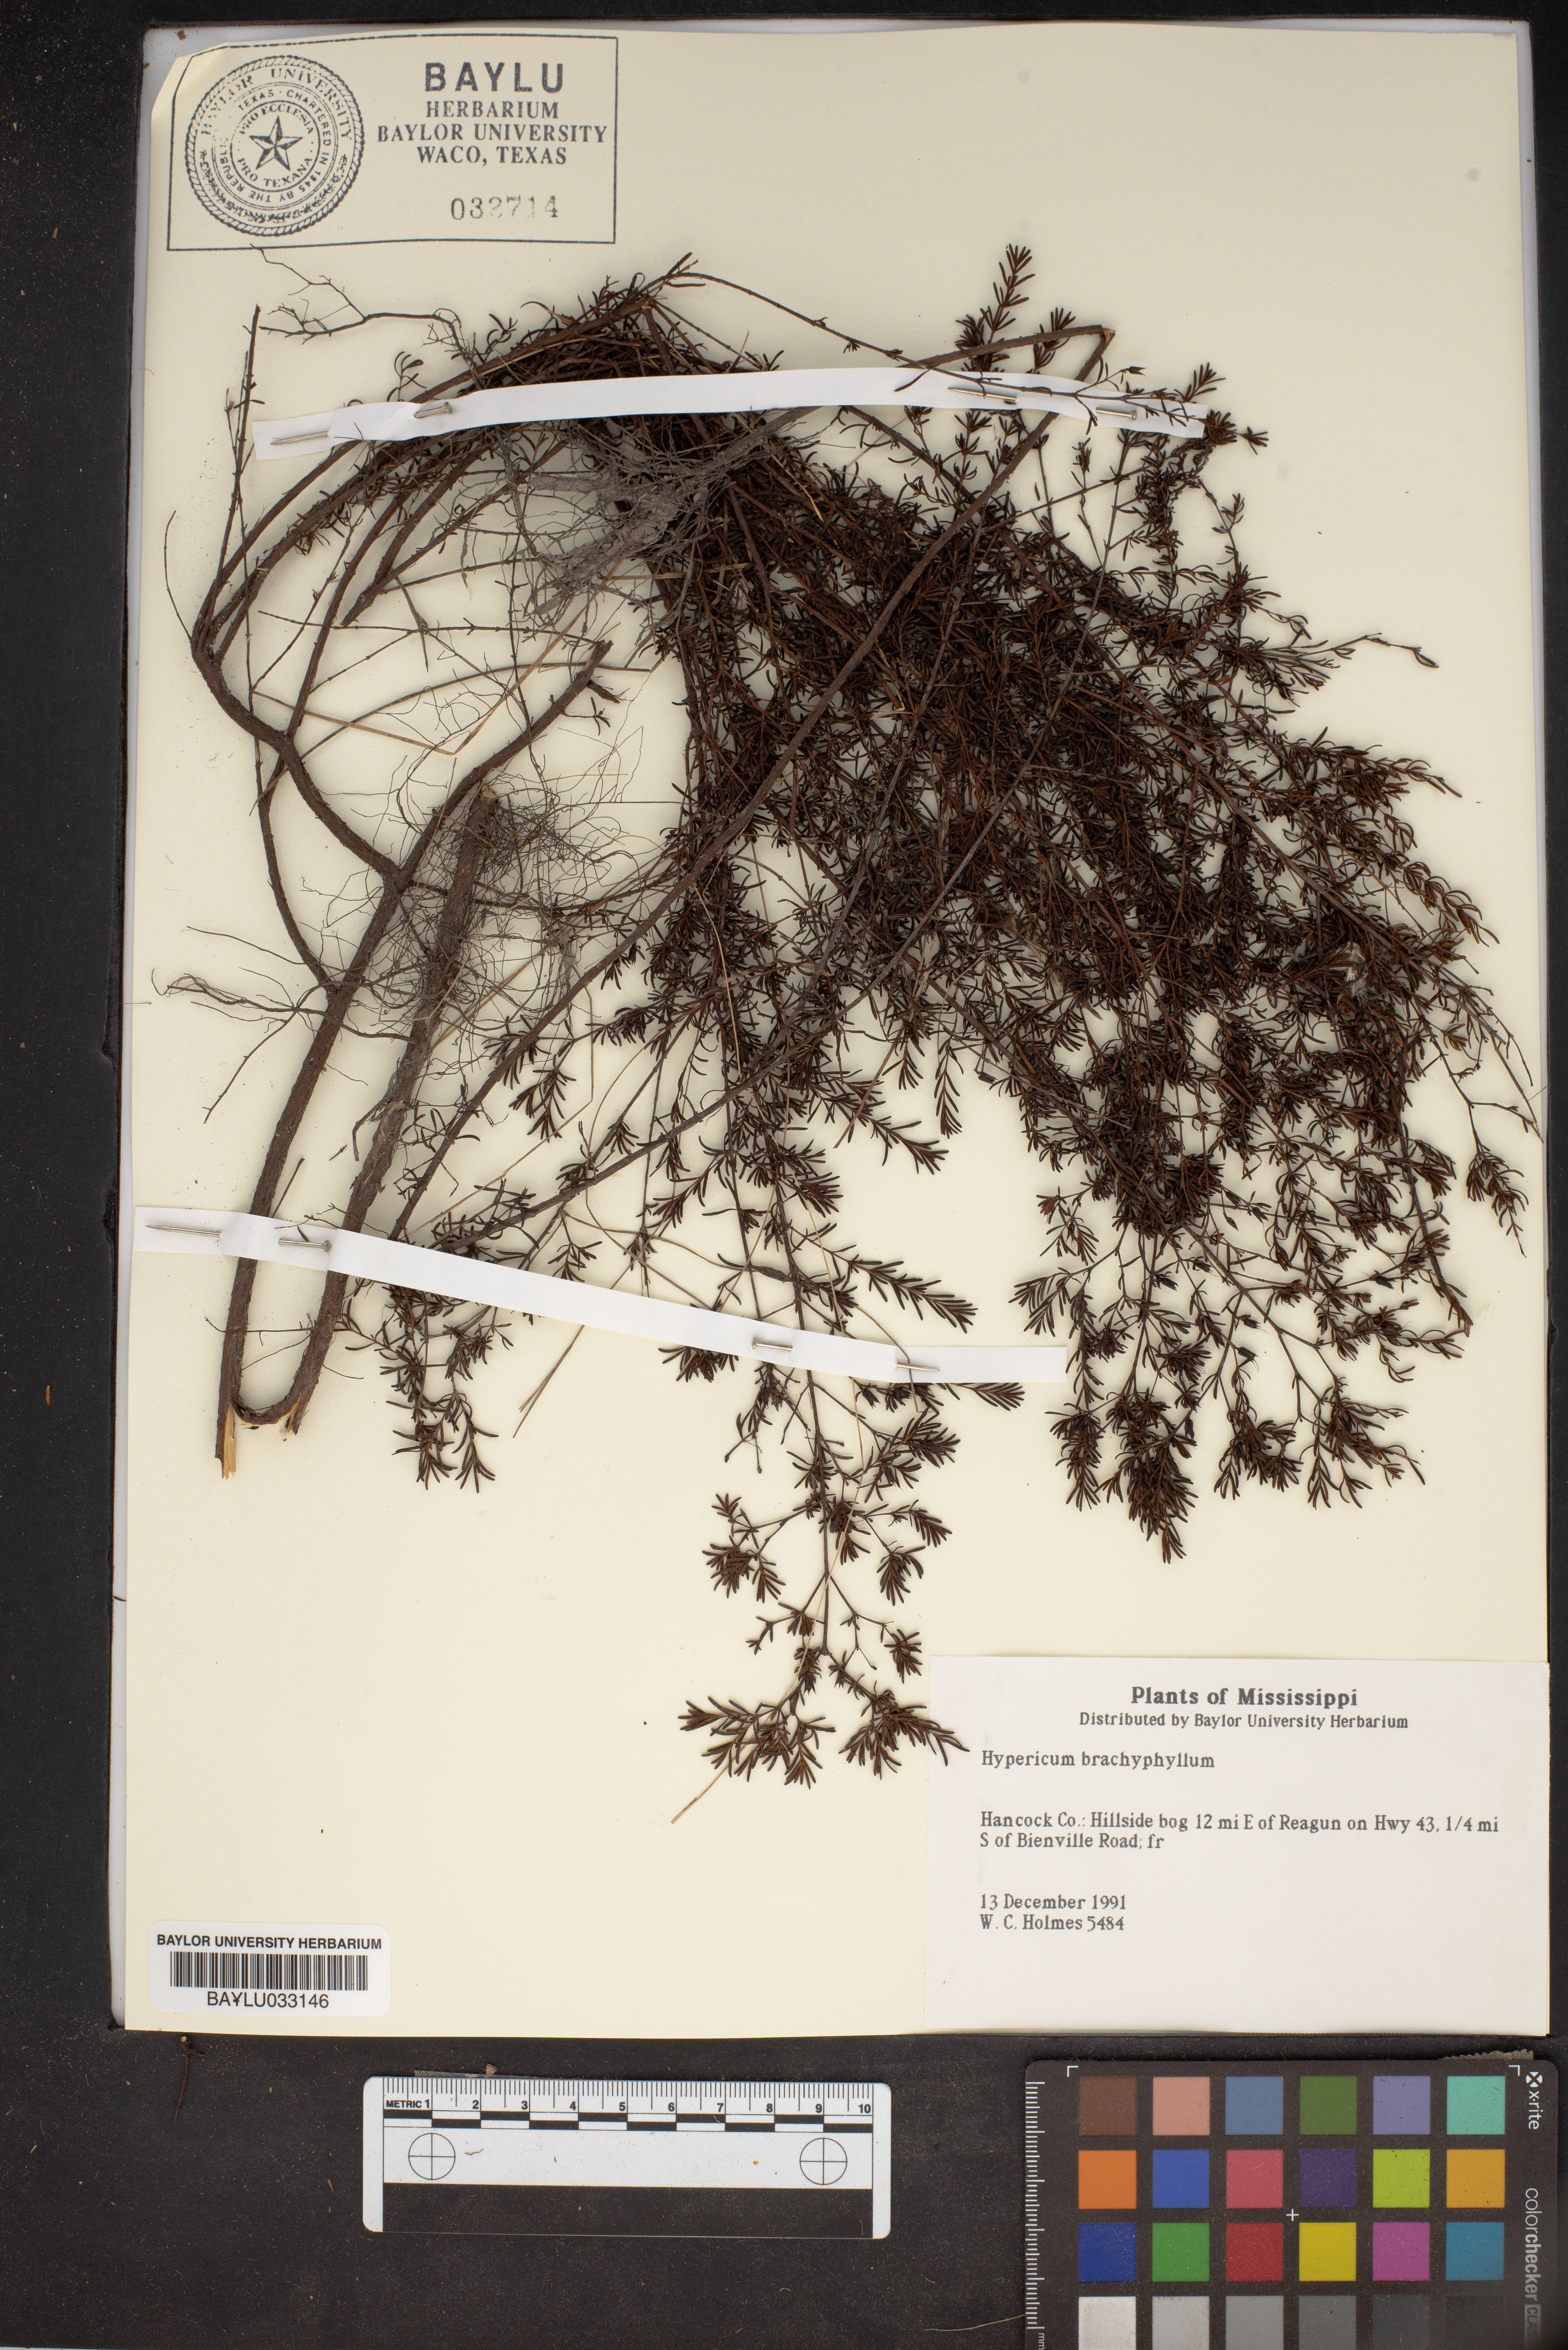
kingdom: Plantae
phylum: Tracheophyta
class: Magnoliopsida
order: Malpighiales
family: Hypericaceae
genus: Hypericum
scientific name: Hypericum brachyphyllum
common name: Coastal plain st. john's-wort
